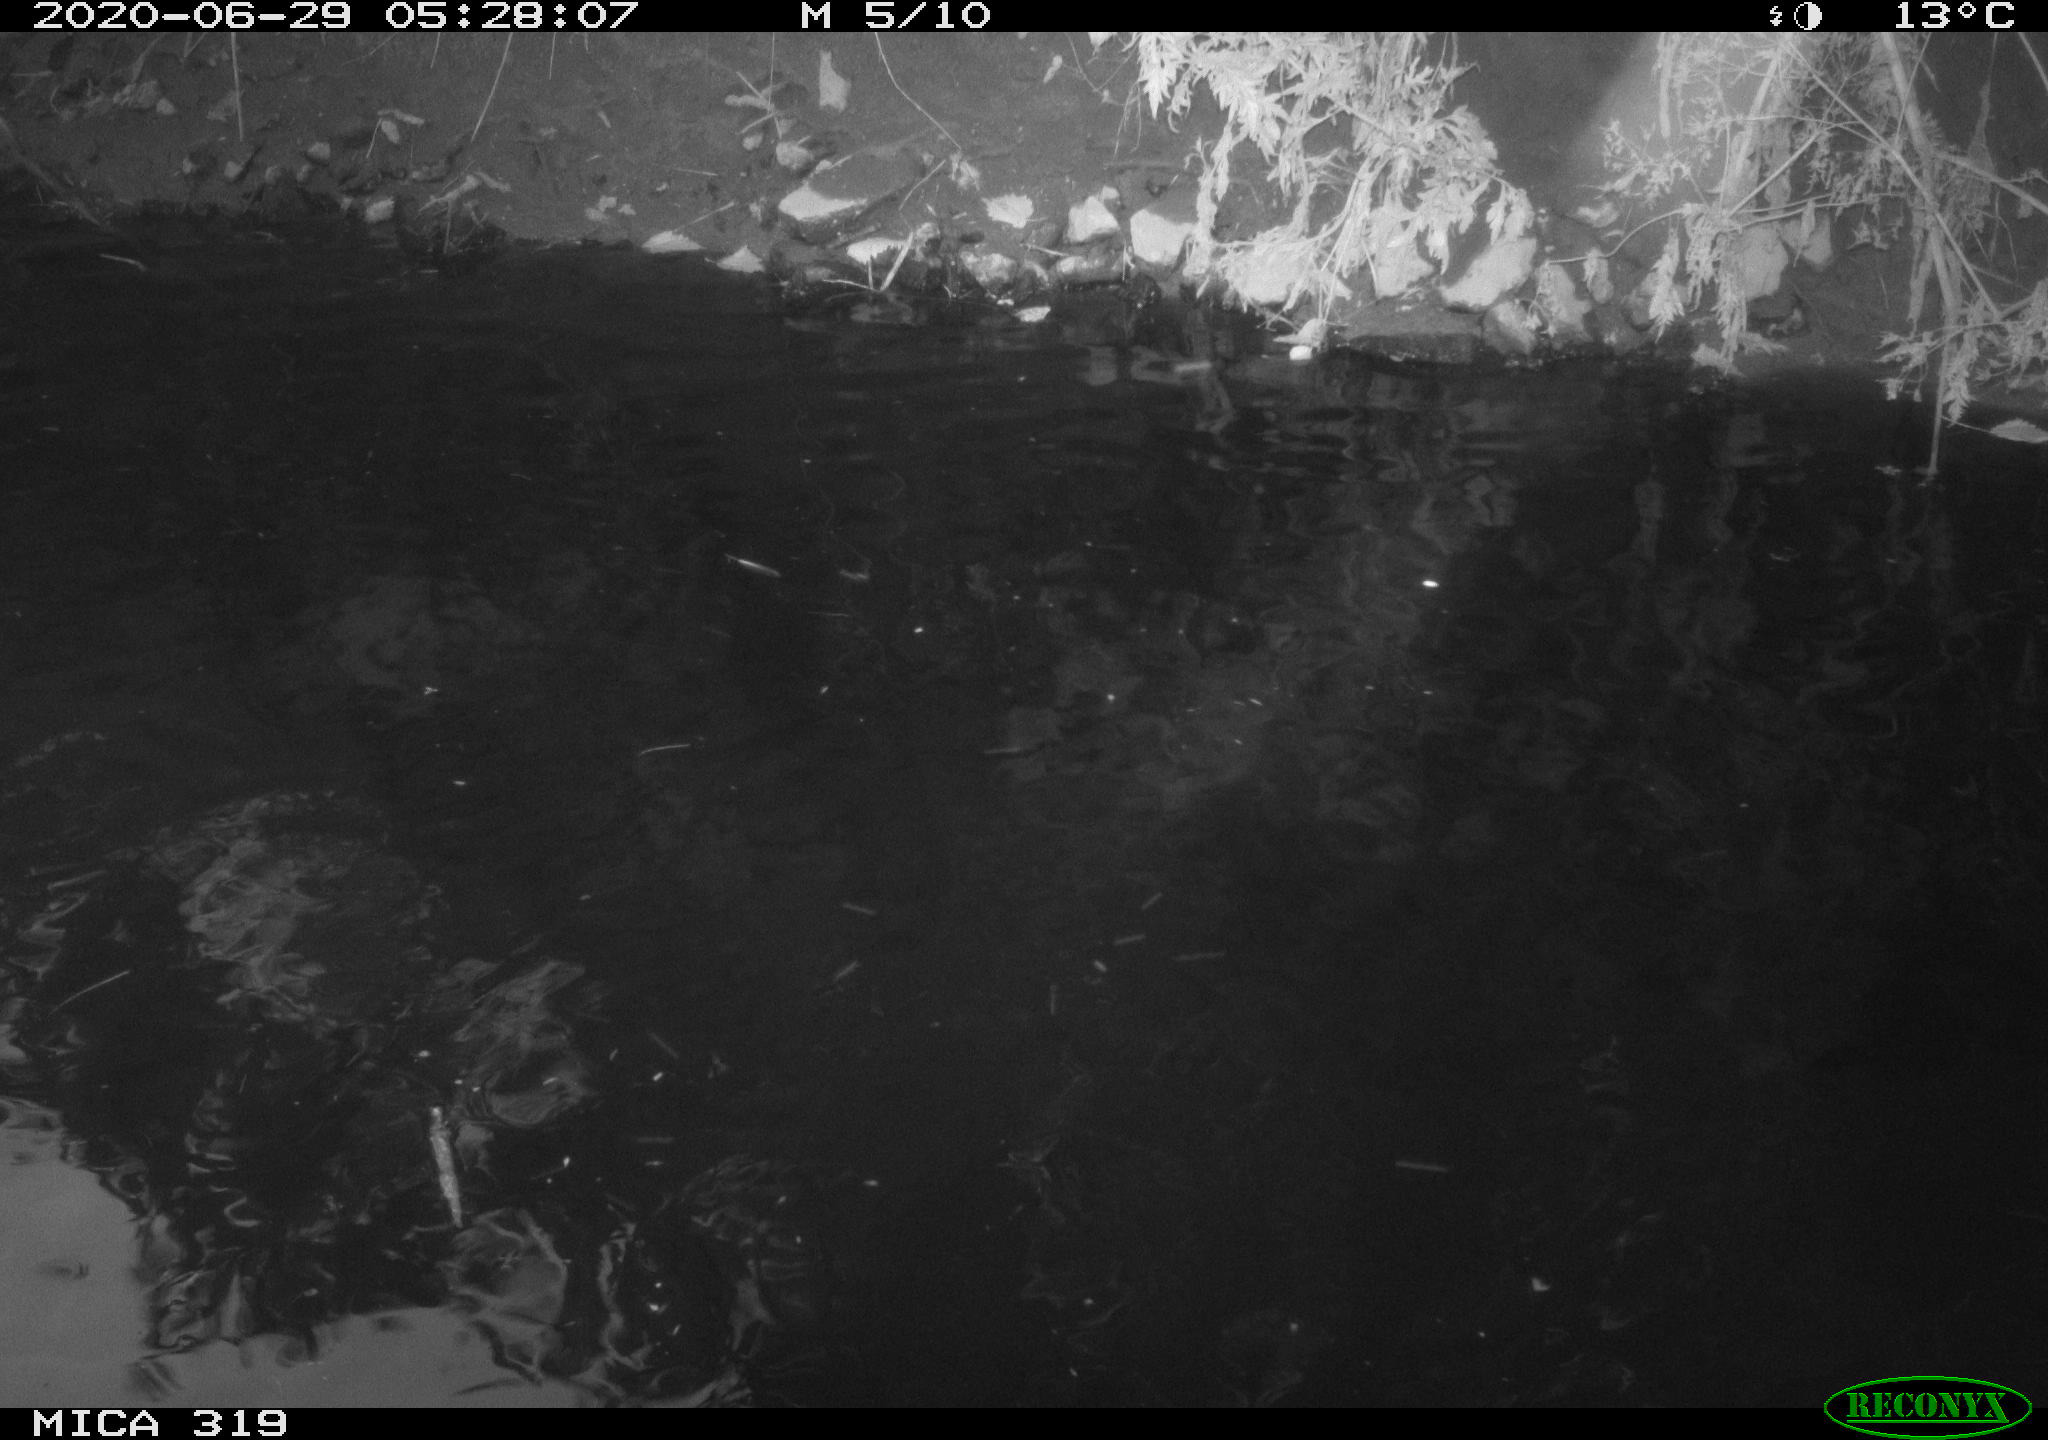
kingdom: Animalia
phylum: Chordata
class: Aves
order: Anseriformes
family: Anatidae
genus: Anas
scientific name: Anas platyrhynchos
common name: Mallard
